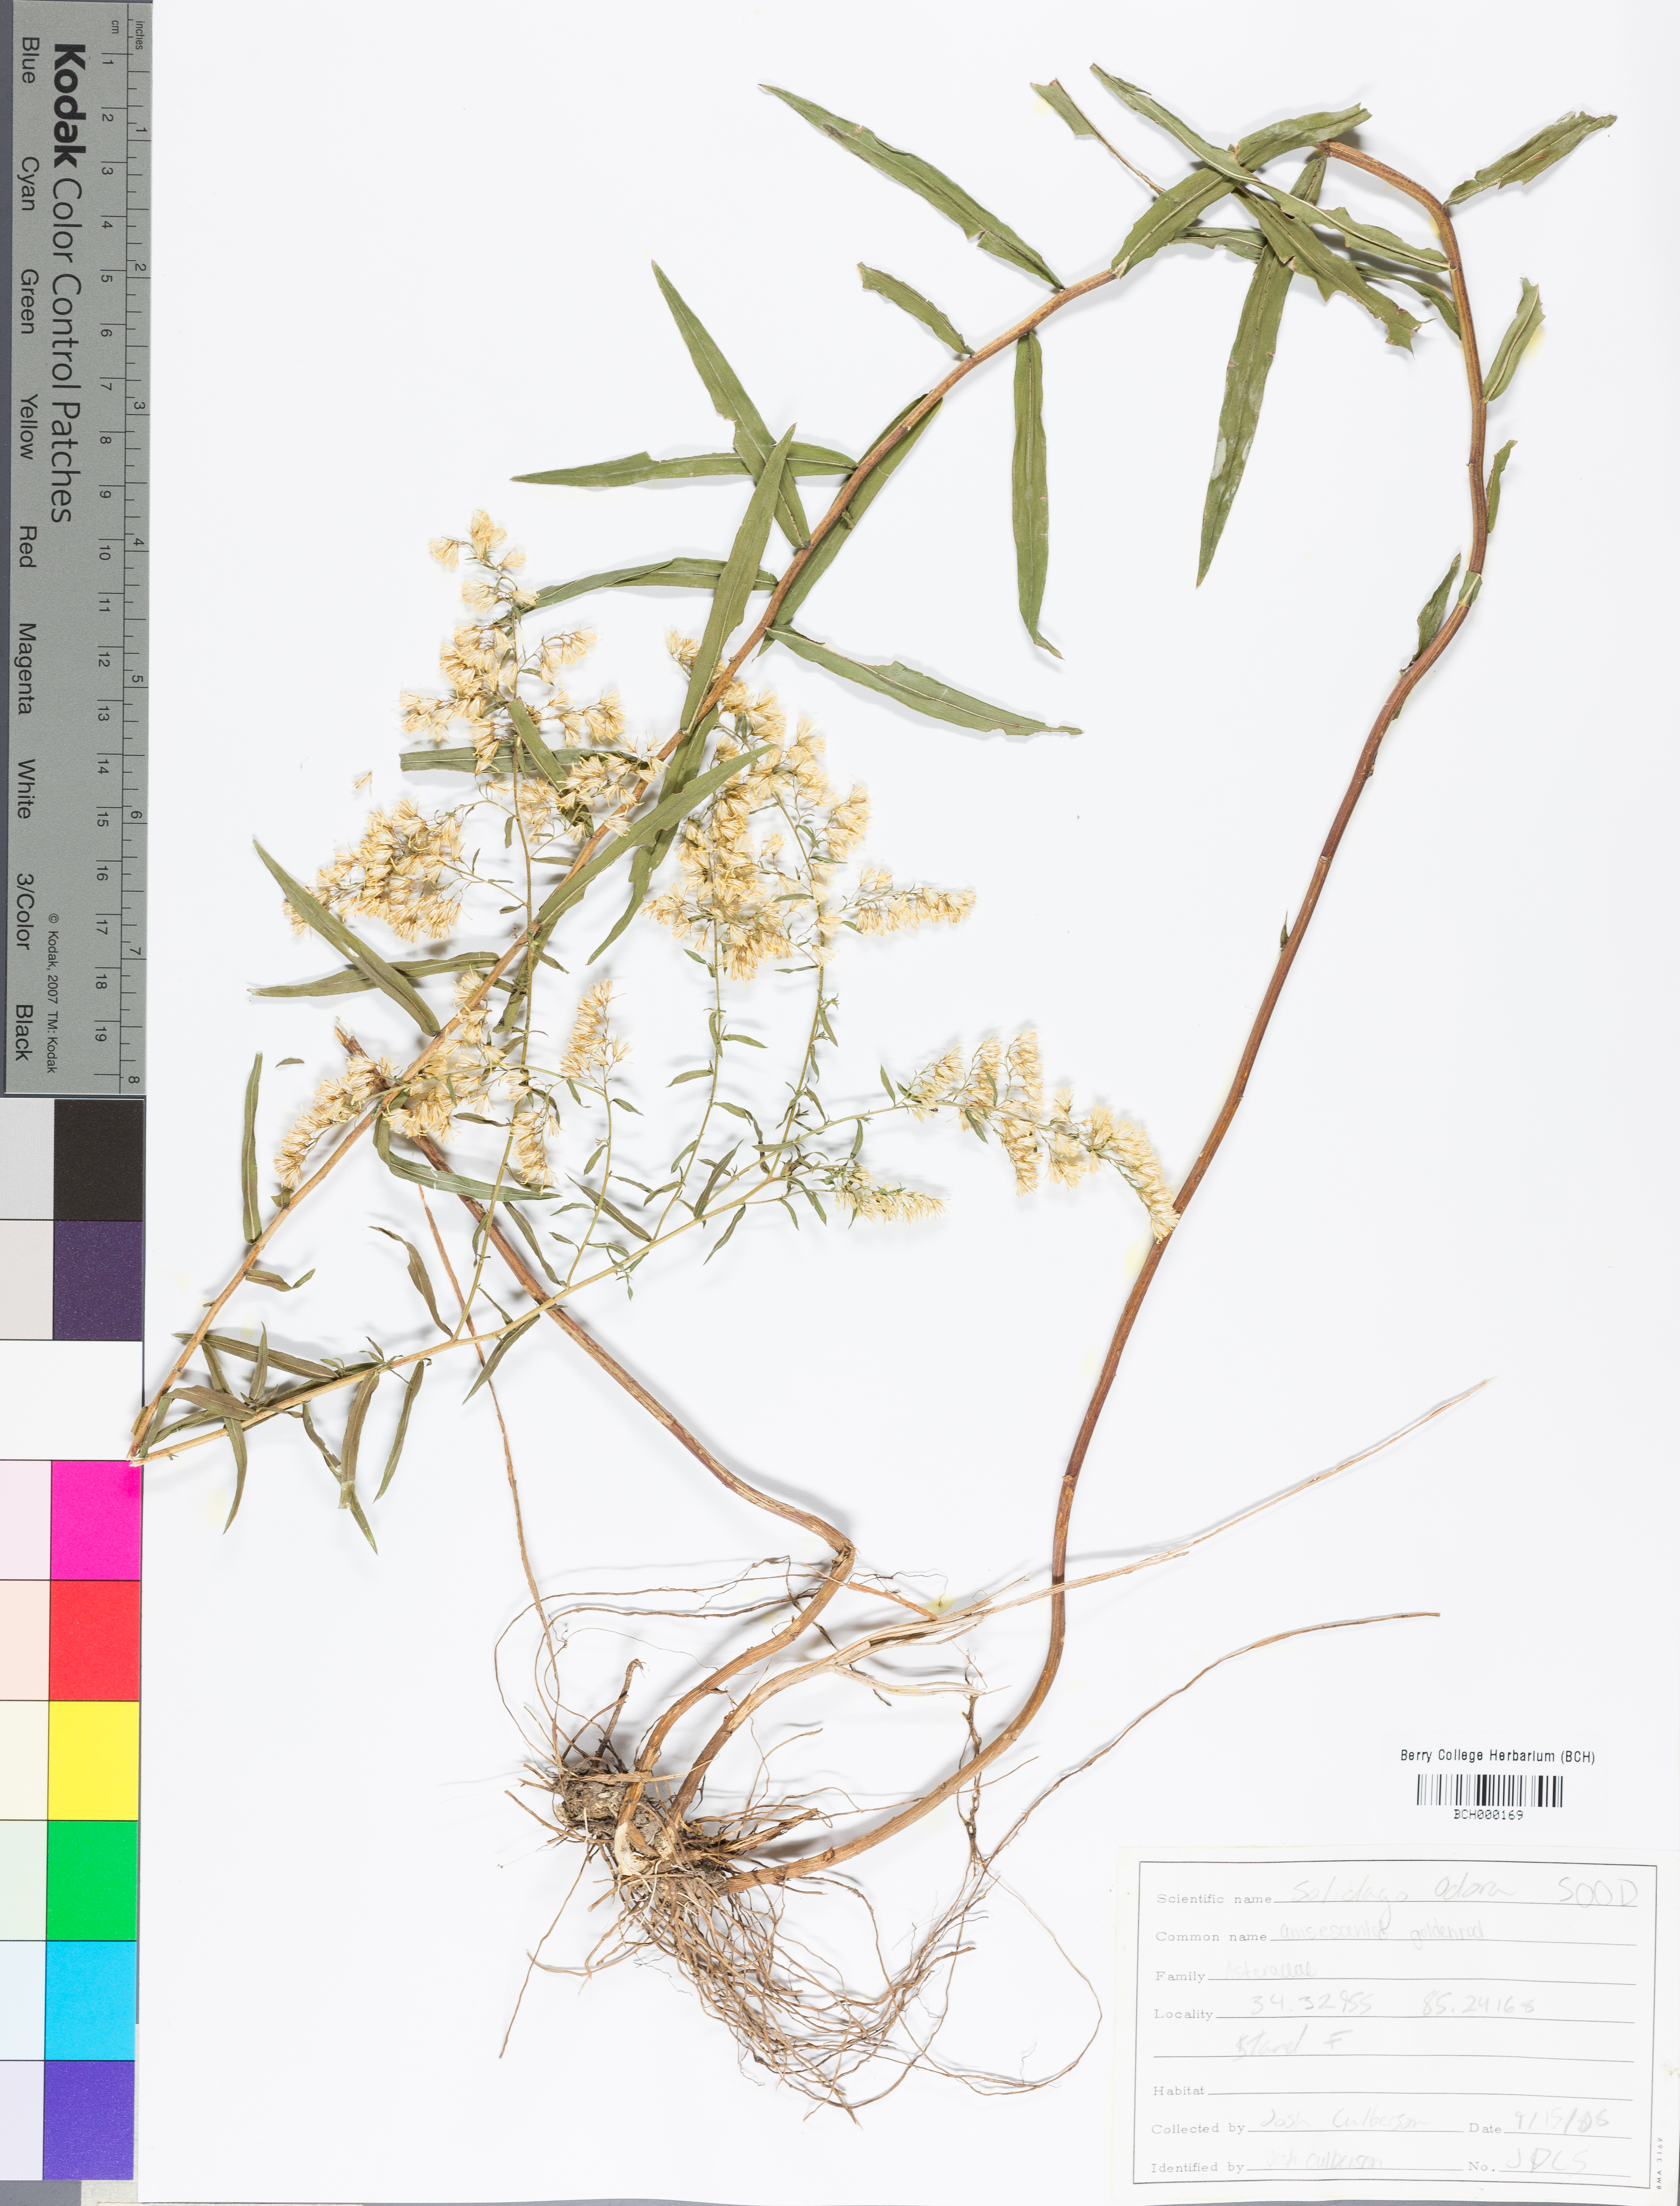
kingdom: Plantae
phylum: Tracheophyta
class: Magnoliopsida
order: Asterales
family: Asteraceae
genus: Solidago
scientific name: Solidago odora
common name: Anise-scented goldenrod
